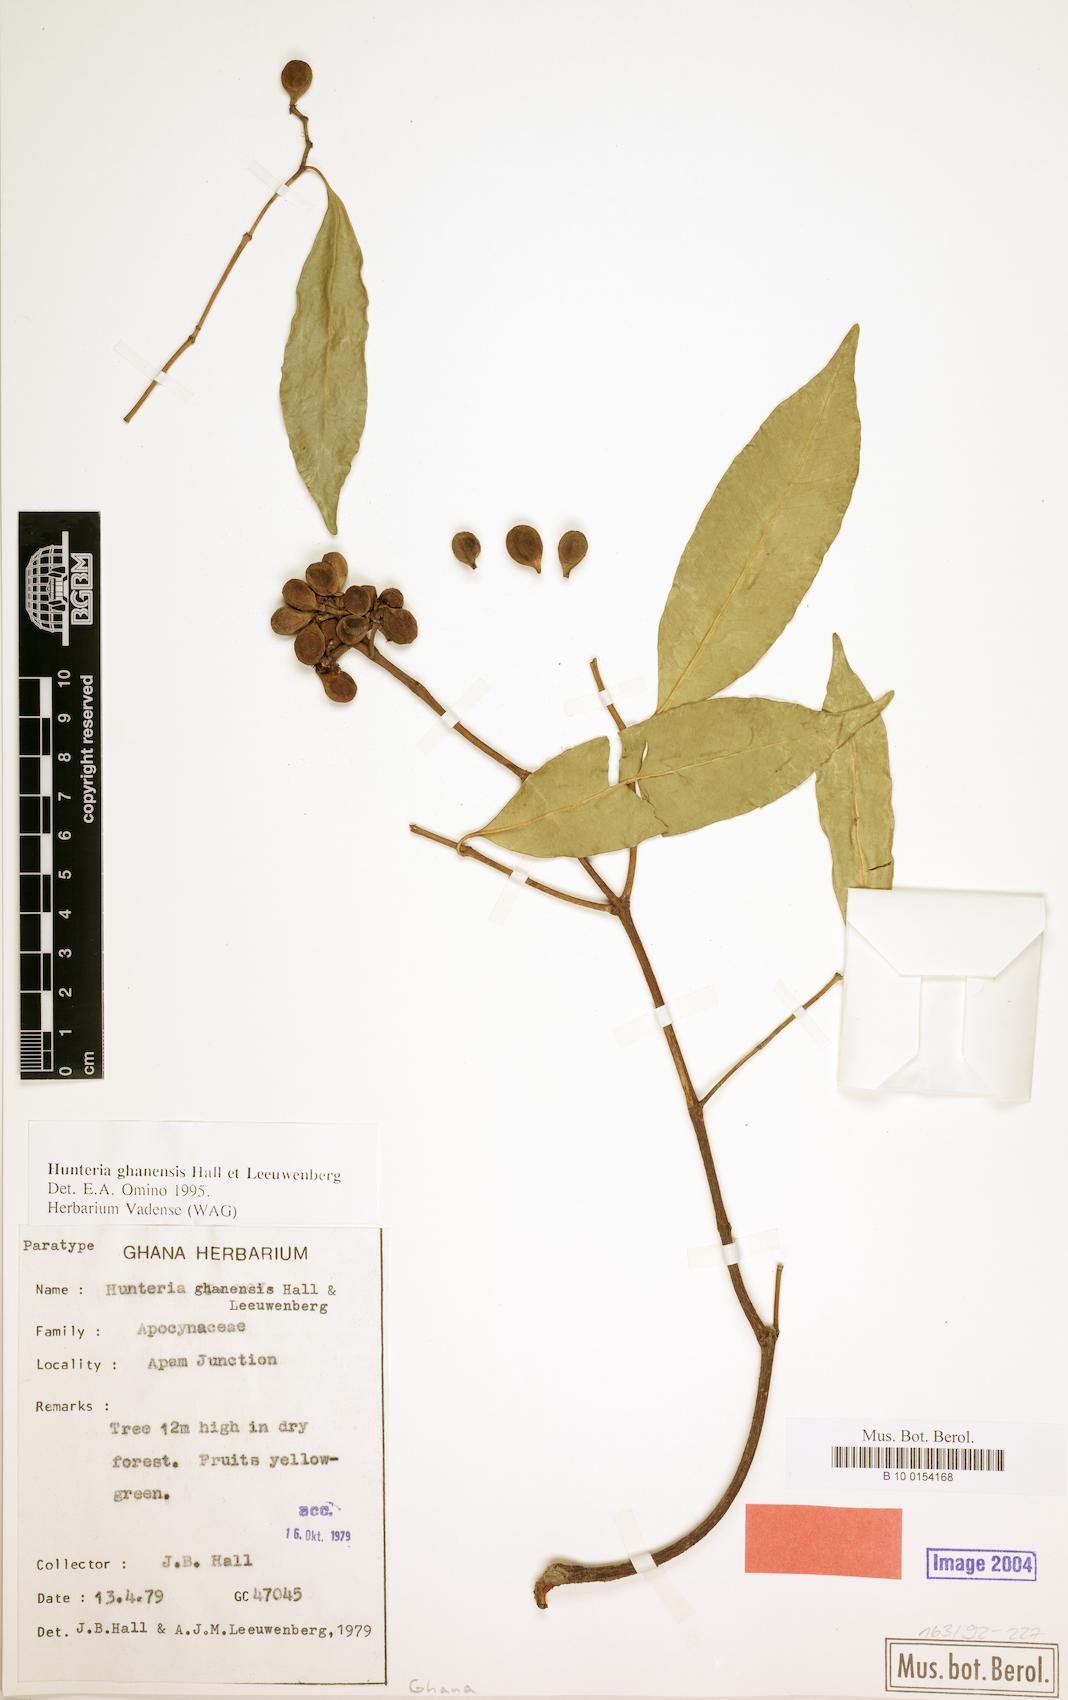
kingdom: Plantae
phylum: Tracheophyta
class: Magnoliopsida
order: Gentianales
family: Apocynaceae
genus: Hunteria
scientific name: Hunteria ghanensis
